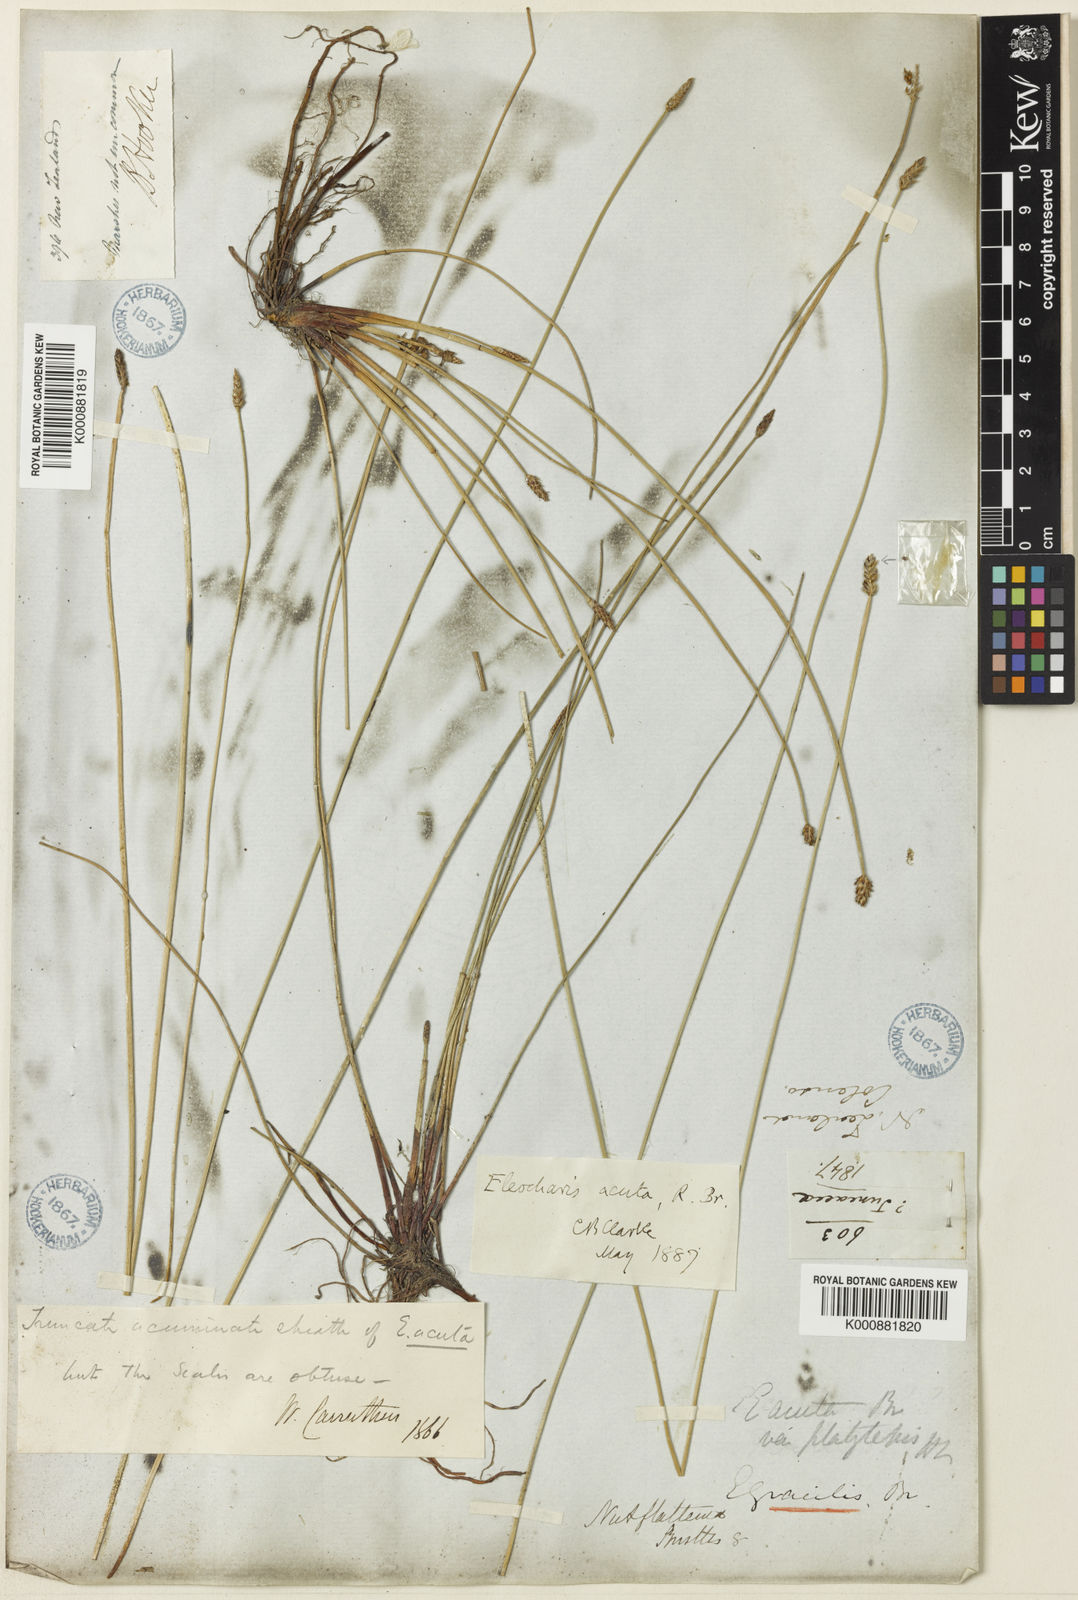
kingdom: Plantae
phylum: Tracheophyta
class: Liliopsida
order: Poales
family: Cyperaceae
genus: Eleocharis
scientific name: Eleocharis acuta
